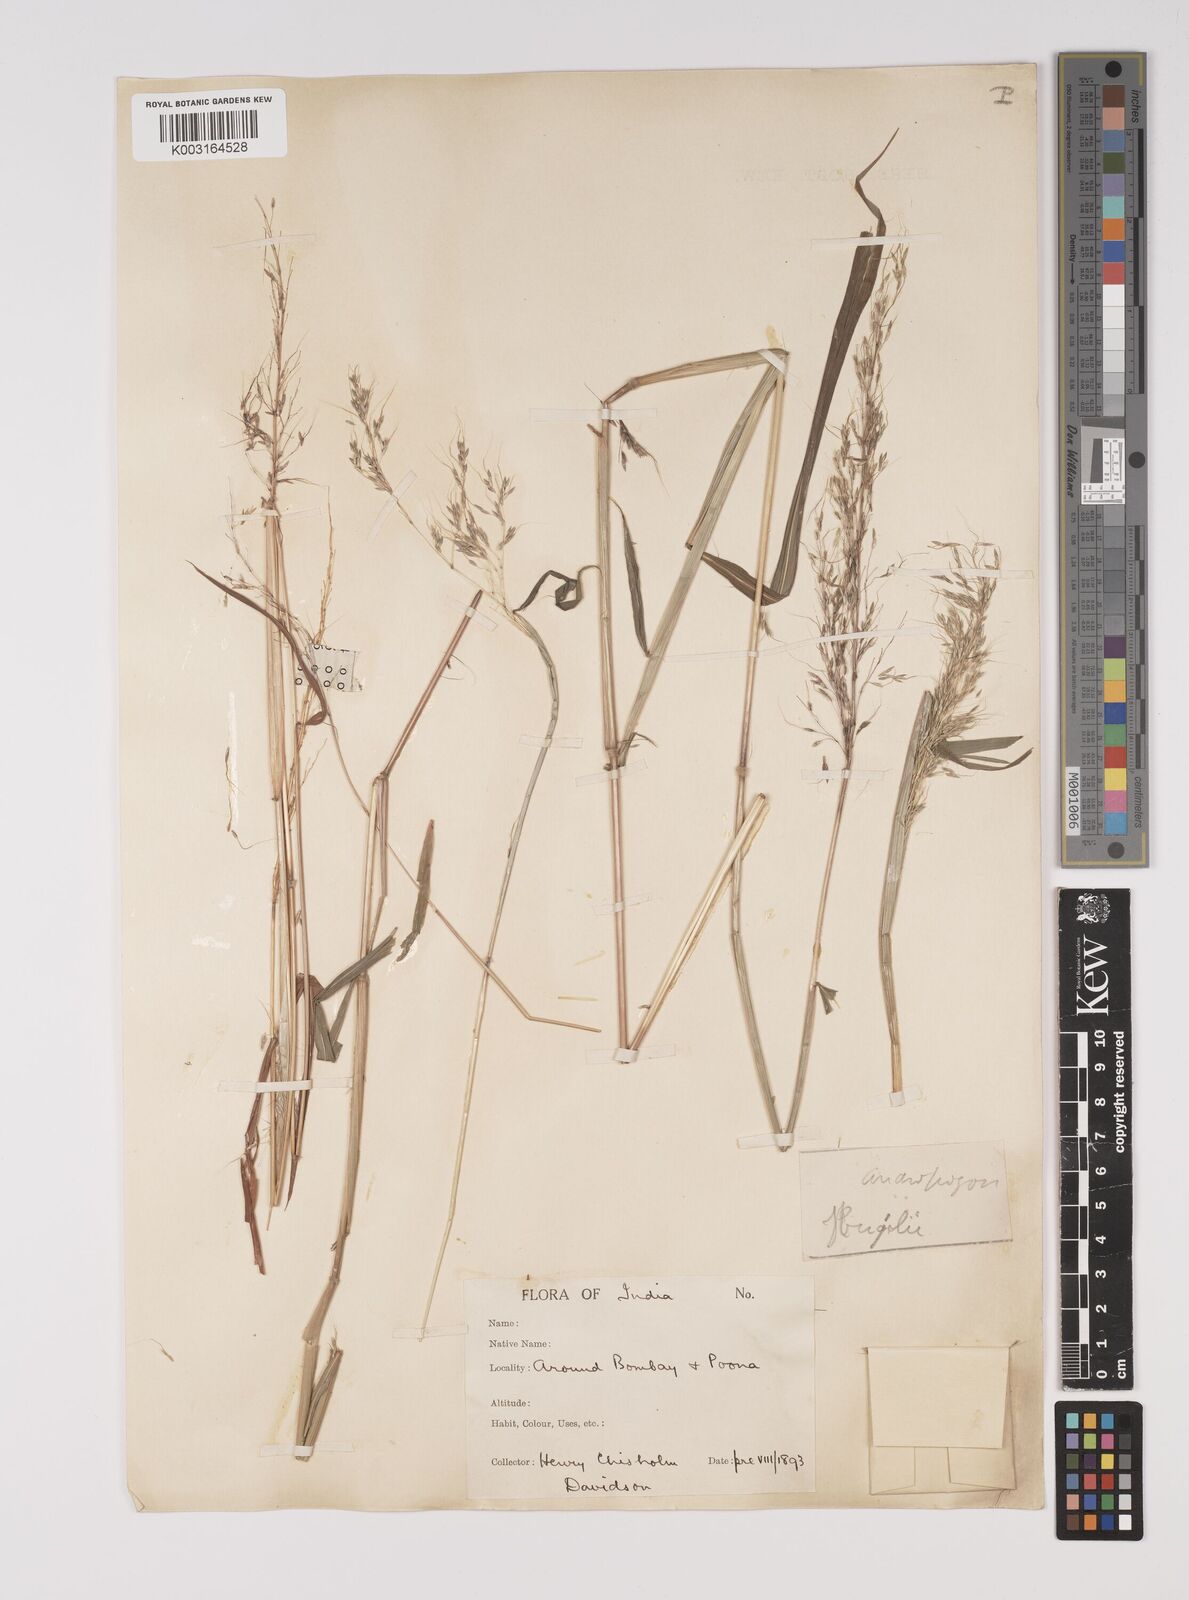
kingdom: Plantae
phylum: Tracheophyta
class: Liliopsida
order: Poales
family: Poaceae
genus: Capillipedium
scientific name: Capillipedium huegelii
